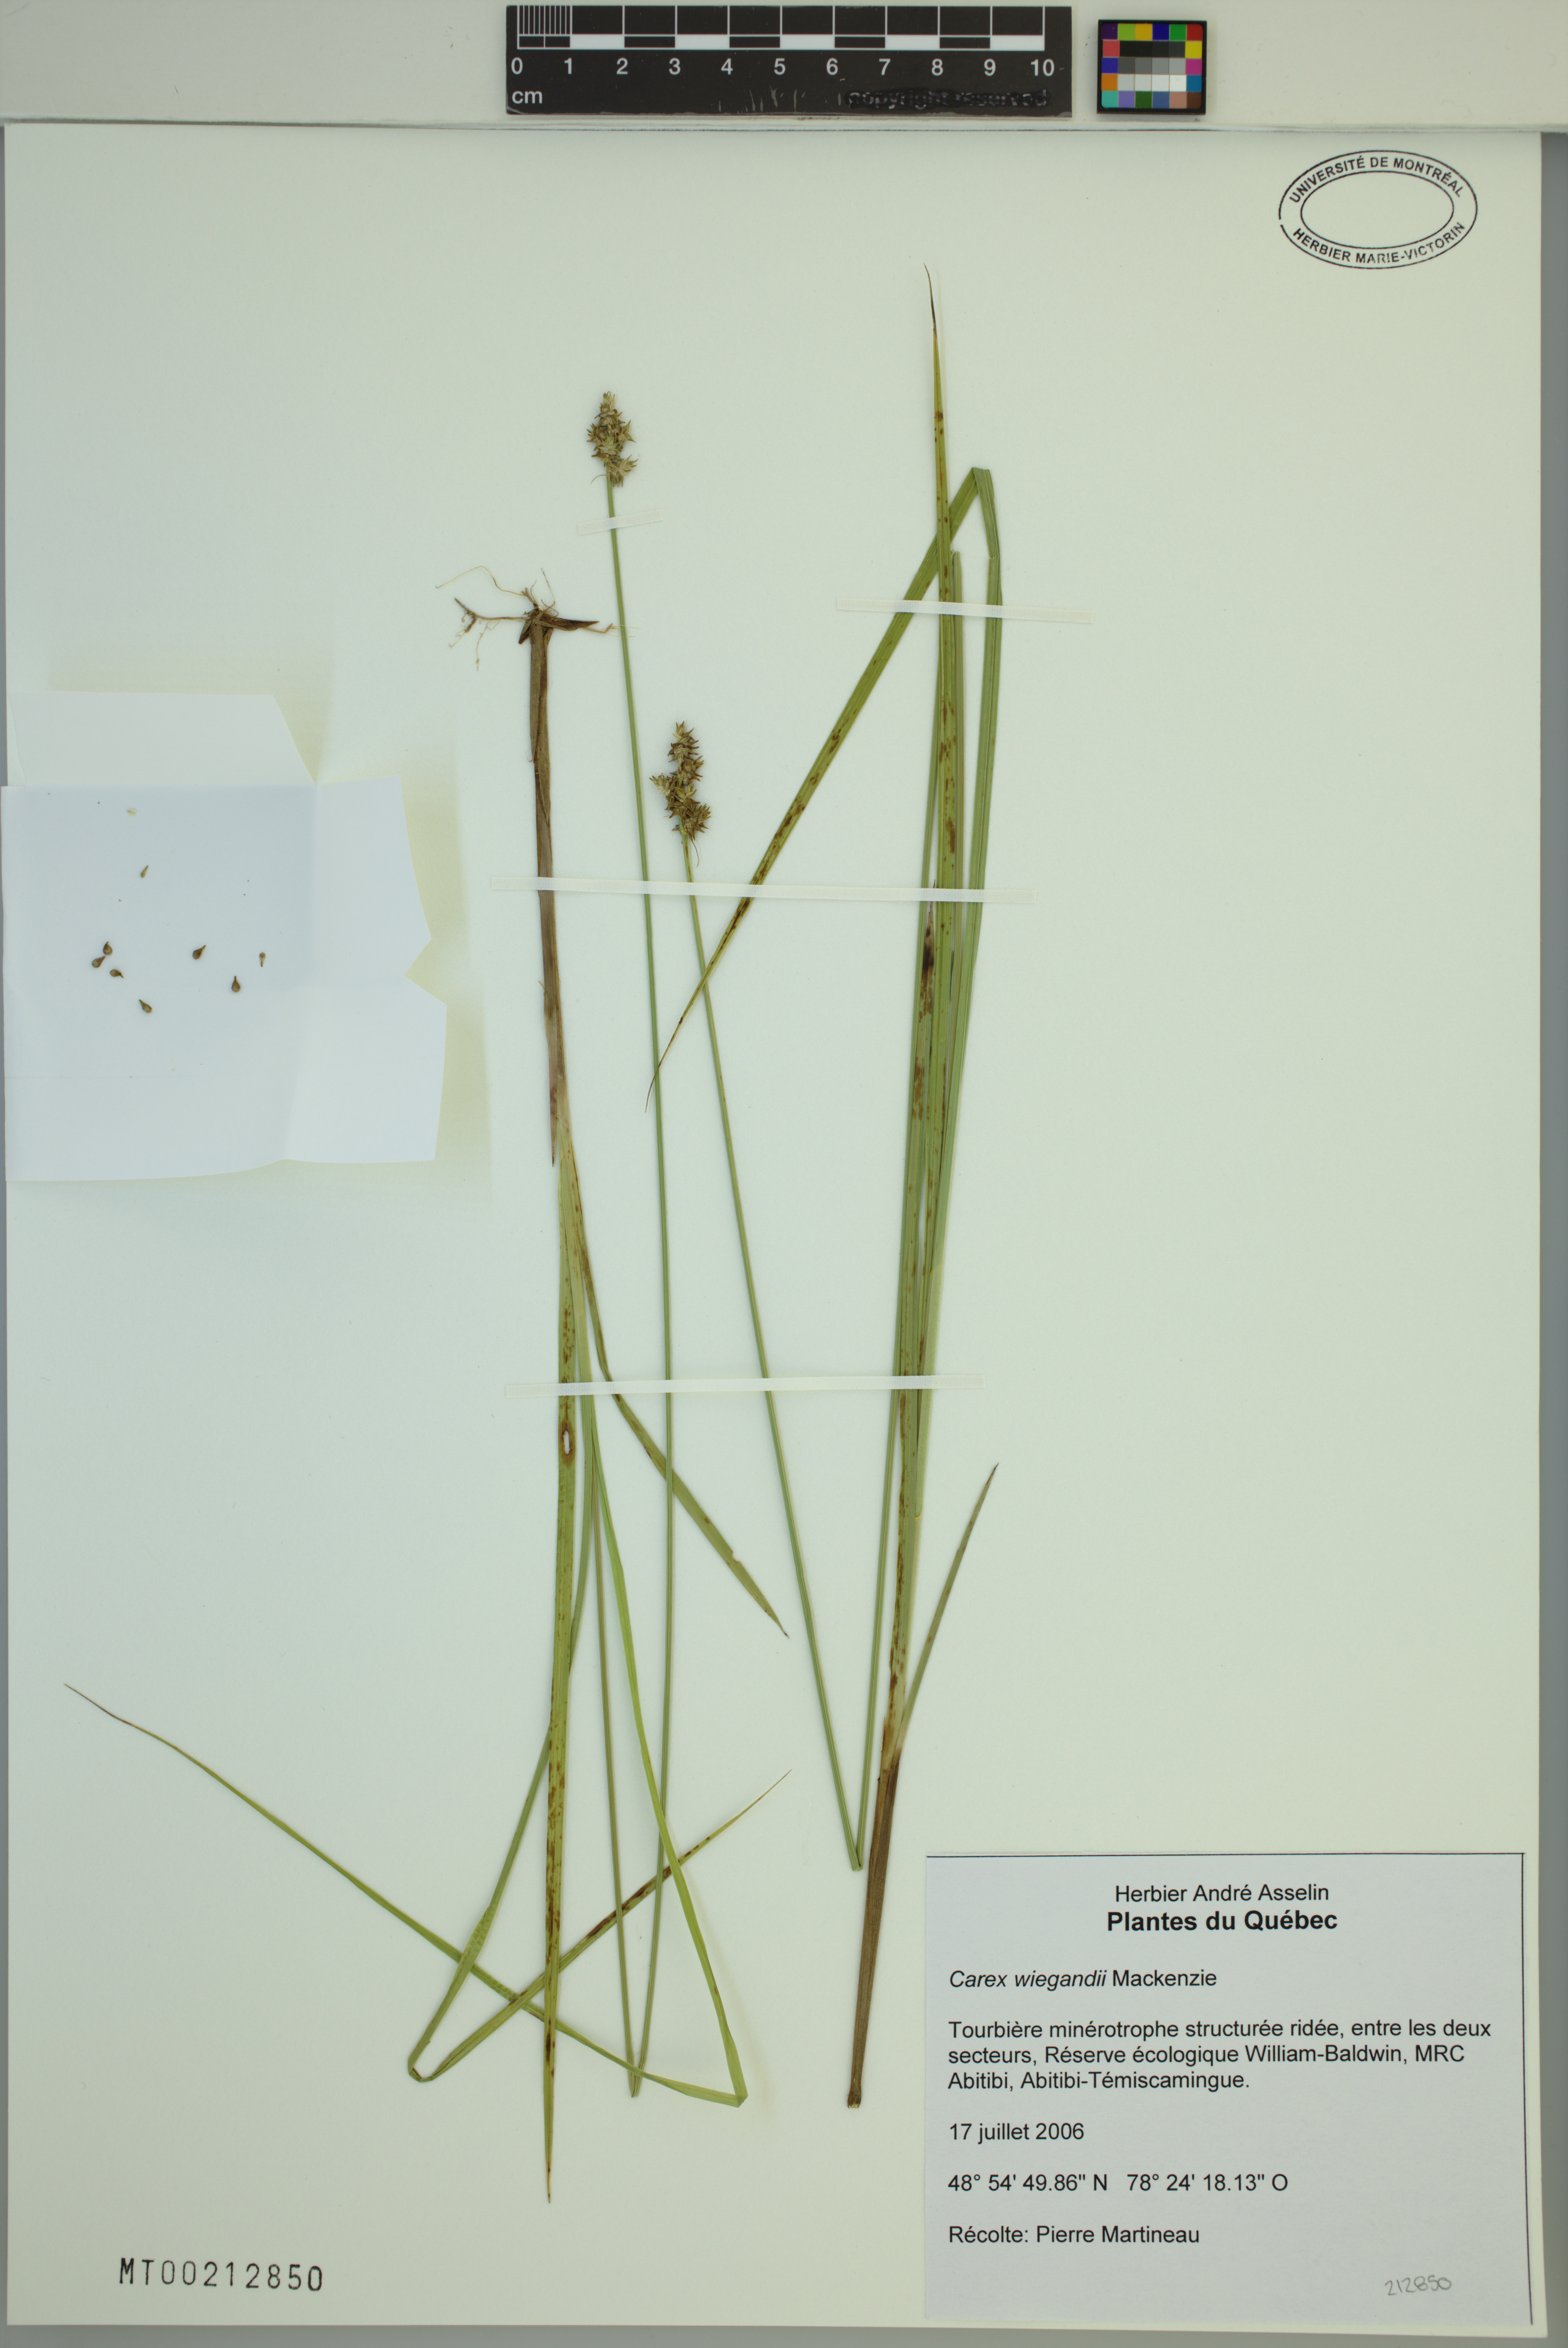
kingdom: Plantae
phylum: Tracheophyta
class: Liliopsida
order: Poales
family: Cyperaceae
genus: Carex
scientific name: Carex wiegandii
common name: Wiegand's sedge
